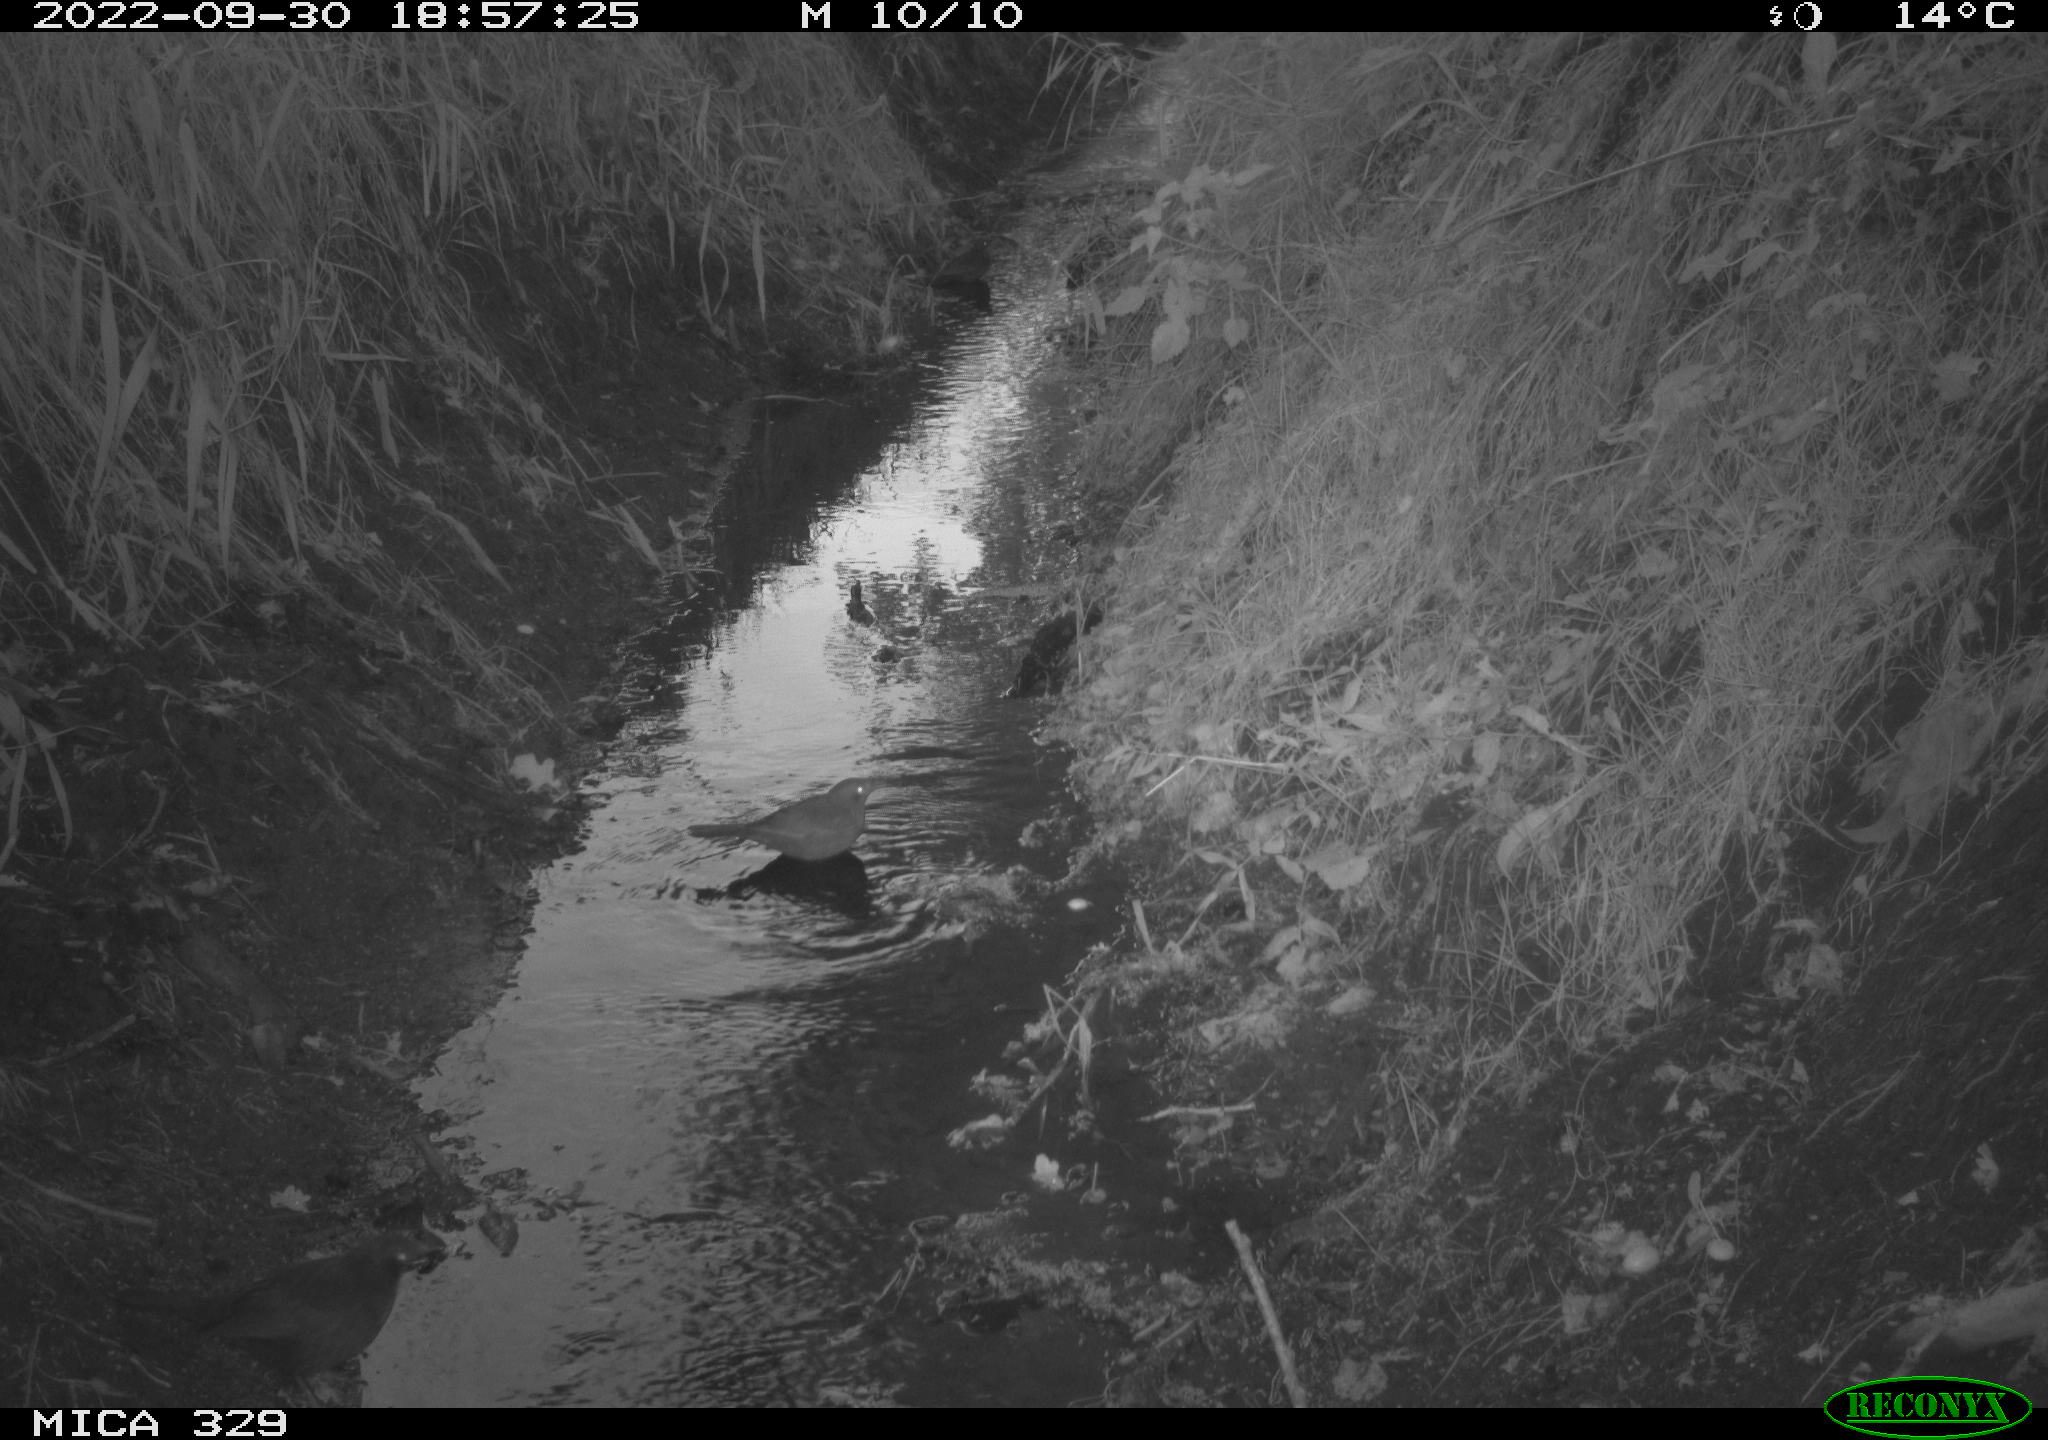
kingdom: Animalia
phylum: Chordata
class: Aves
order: Passeriformes
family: Turdidae
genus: Turdus
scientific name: Turdus merula
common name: Common blackbird
